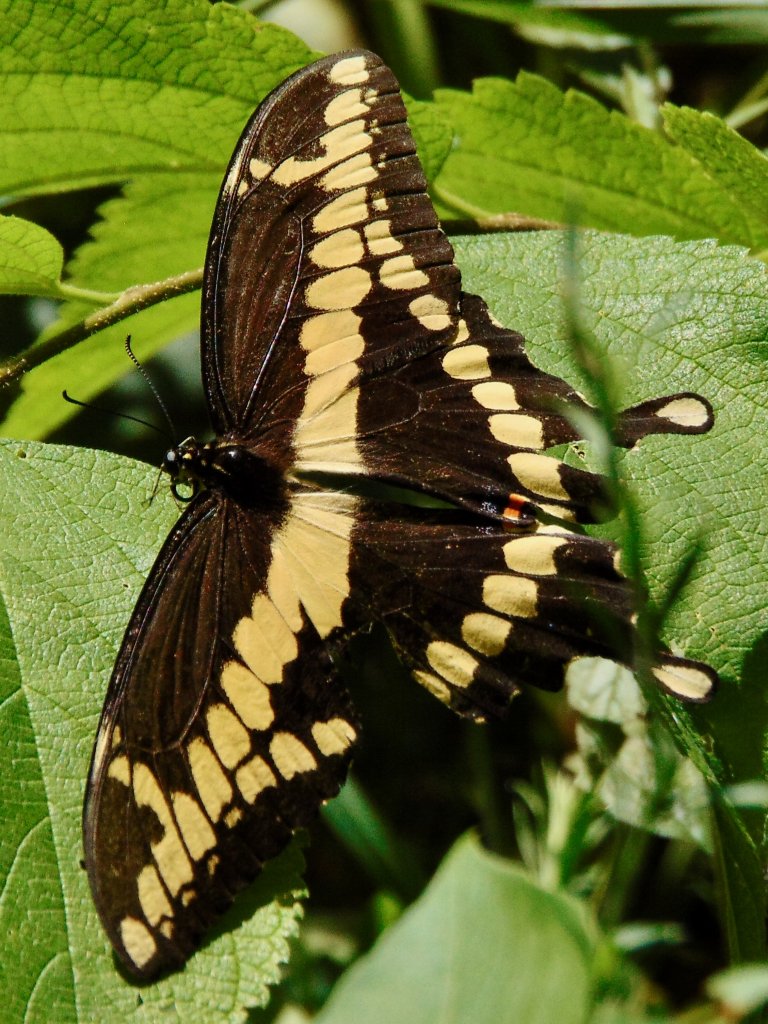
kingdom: Animalia
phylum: Arthropoda
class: Insecta
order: Lepidoptera
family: Papilionidae
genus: Papilio
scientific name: Papilio cresphontes
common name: Eastern Giant Swallowtail
